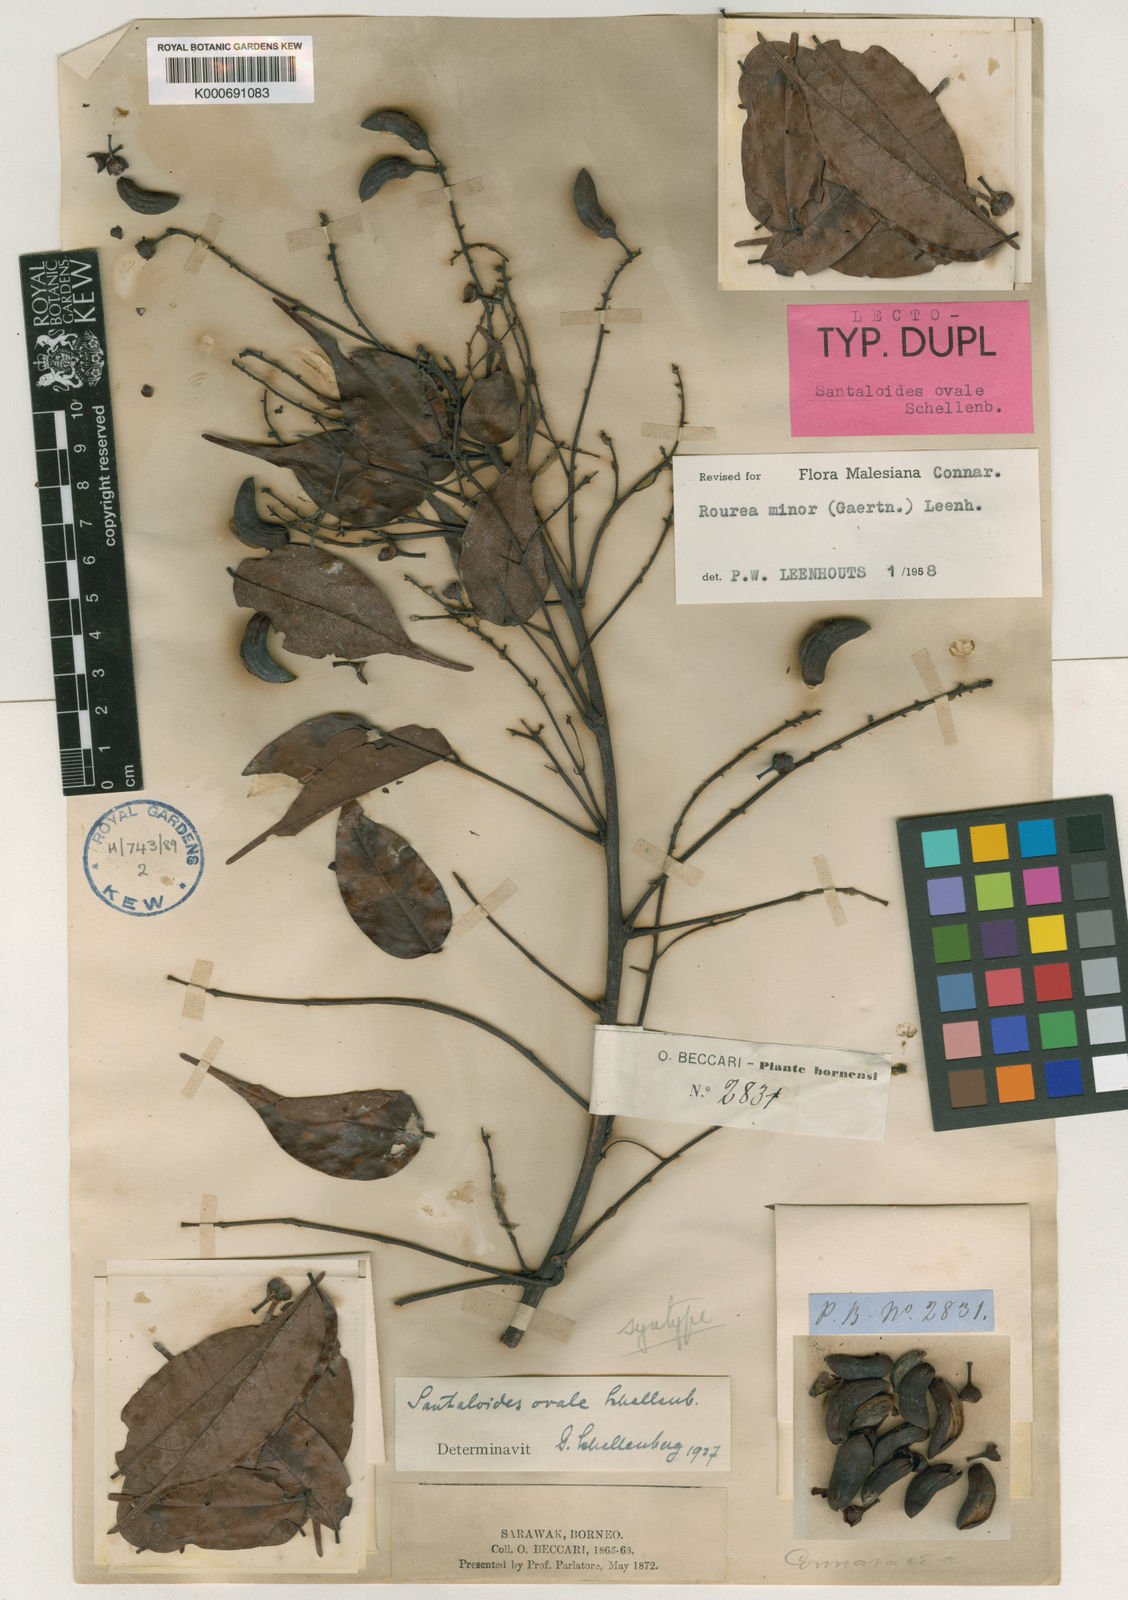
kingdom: Plantae
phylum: Tracheophyta
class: Magnoliopsida
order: Oxalidales
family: Connaraceae
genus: Rourea
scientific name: Rourea
